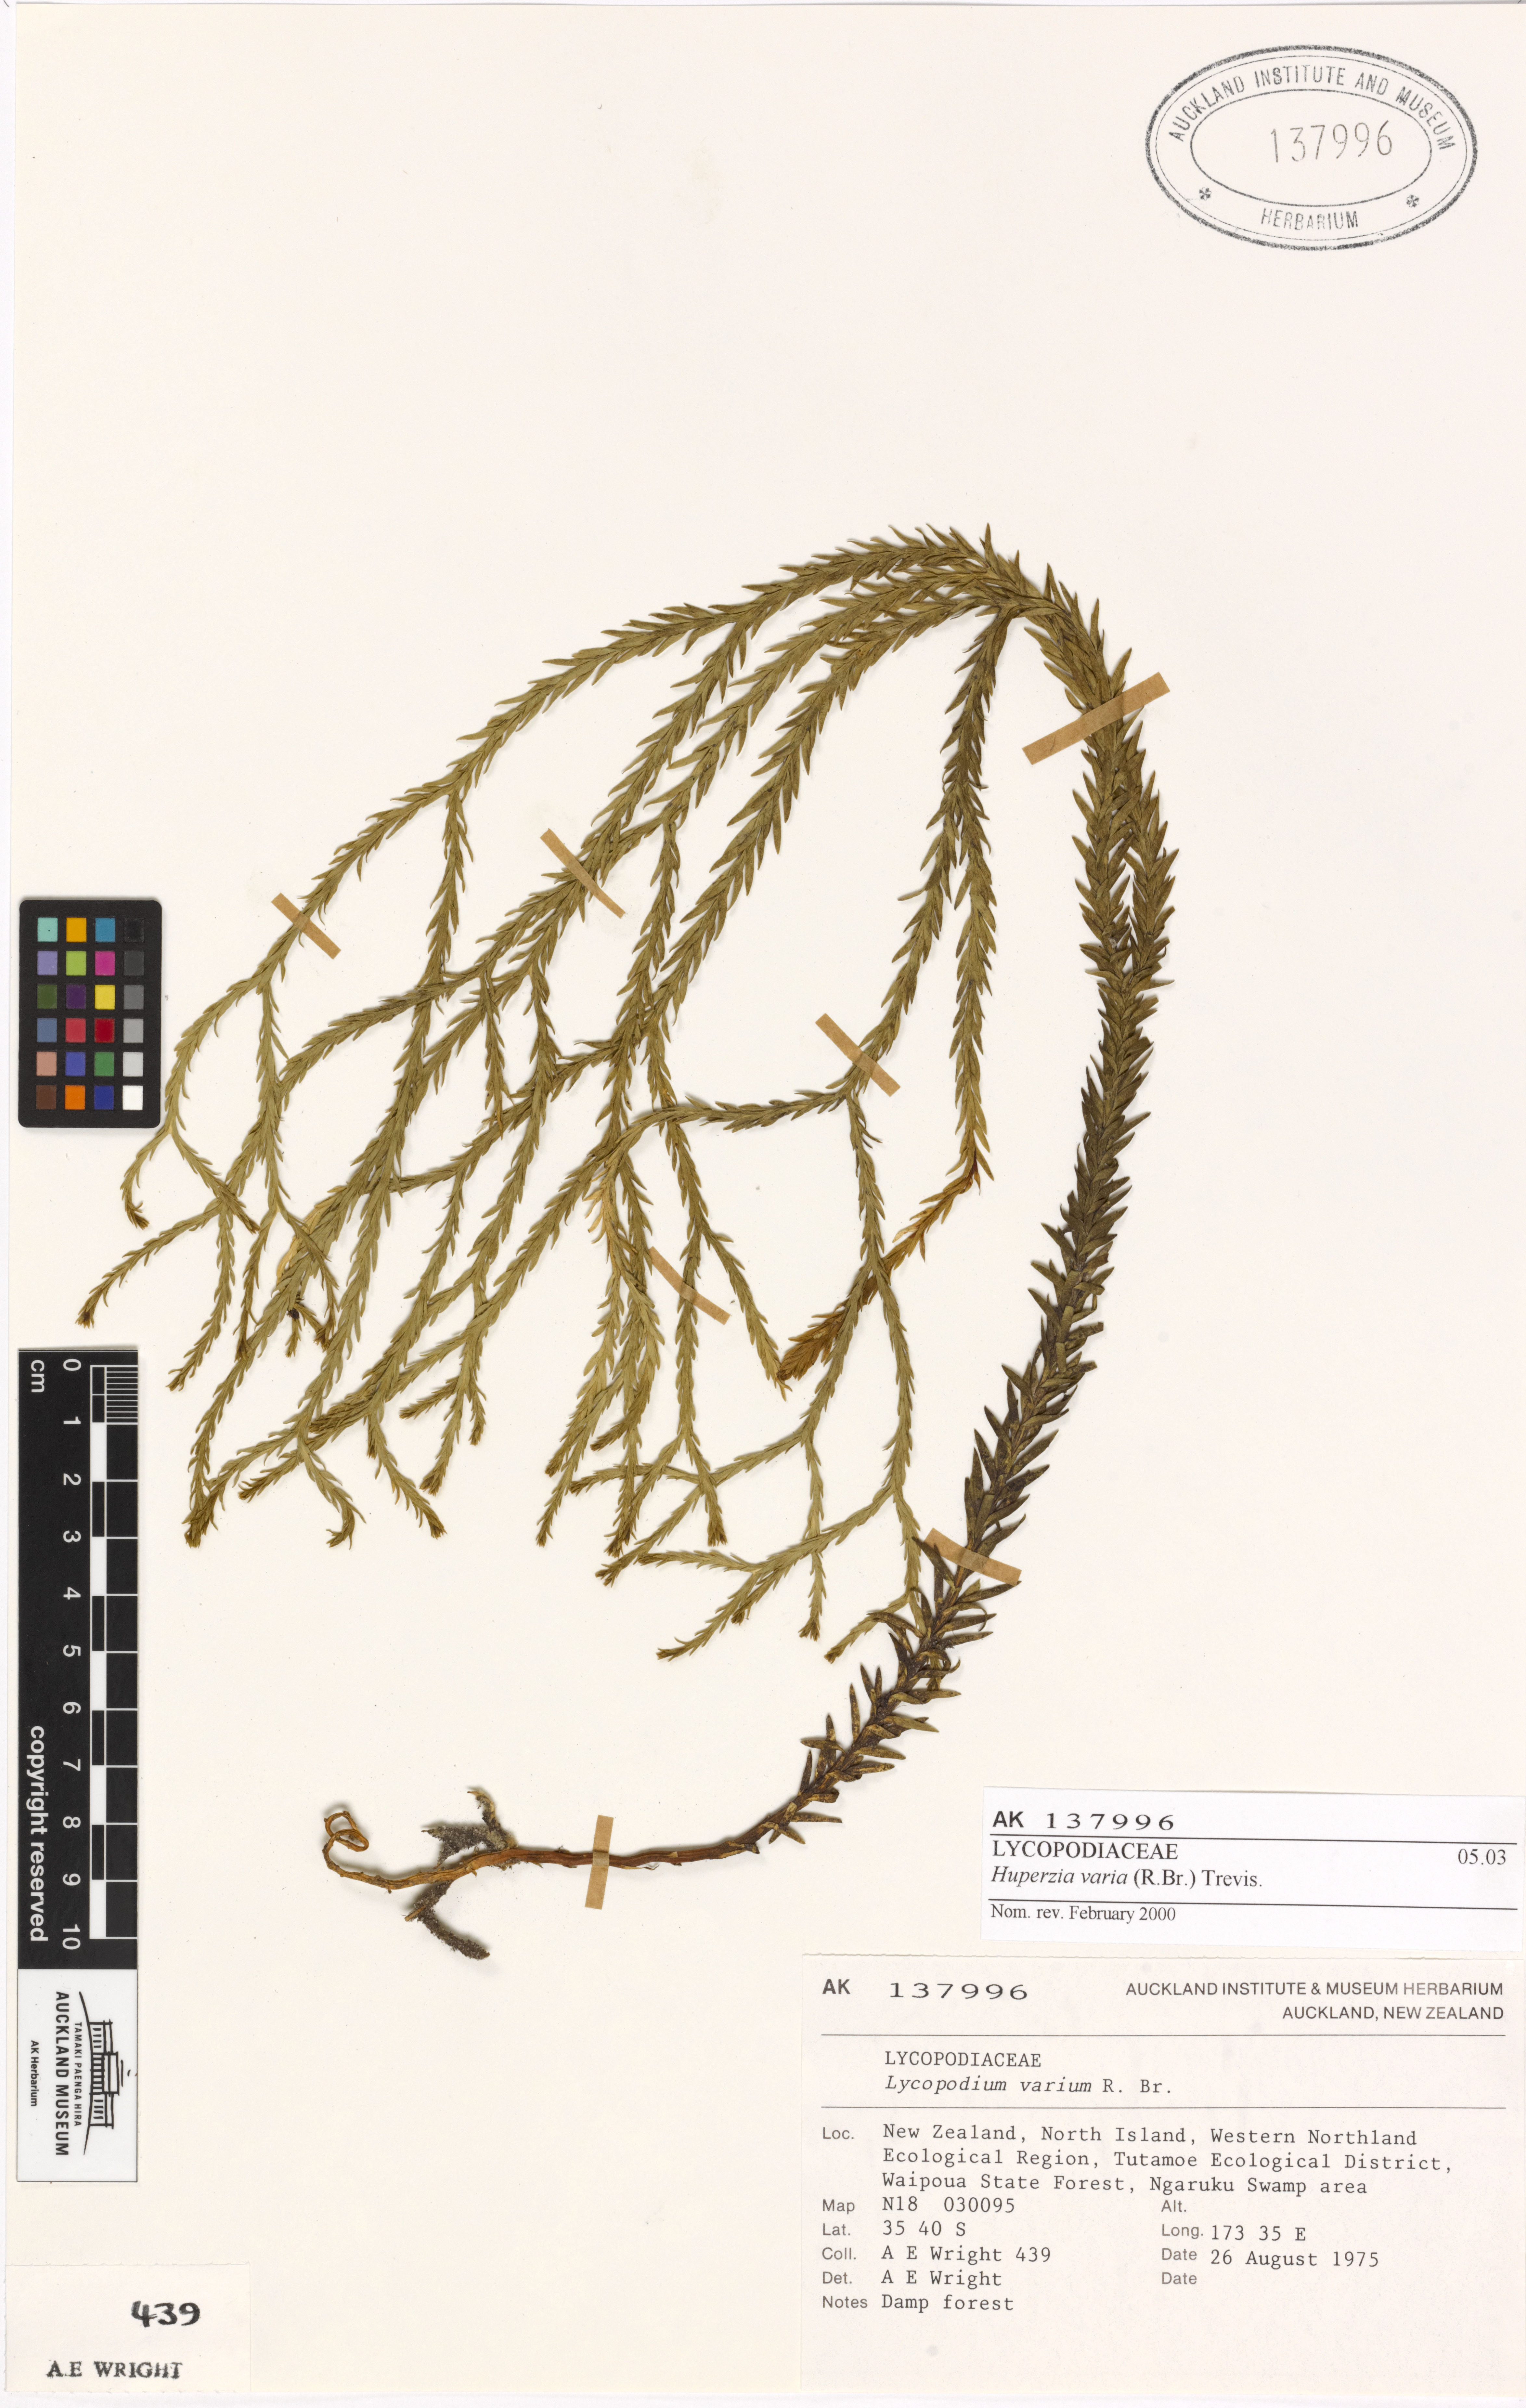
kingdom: Plantae
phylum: Tracheophyta
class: Lycopodiopsida
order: Lycopodiales
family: Lycopodiaceae
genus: Phlegmariurus
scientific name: Phlegmariurus
